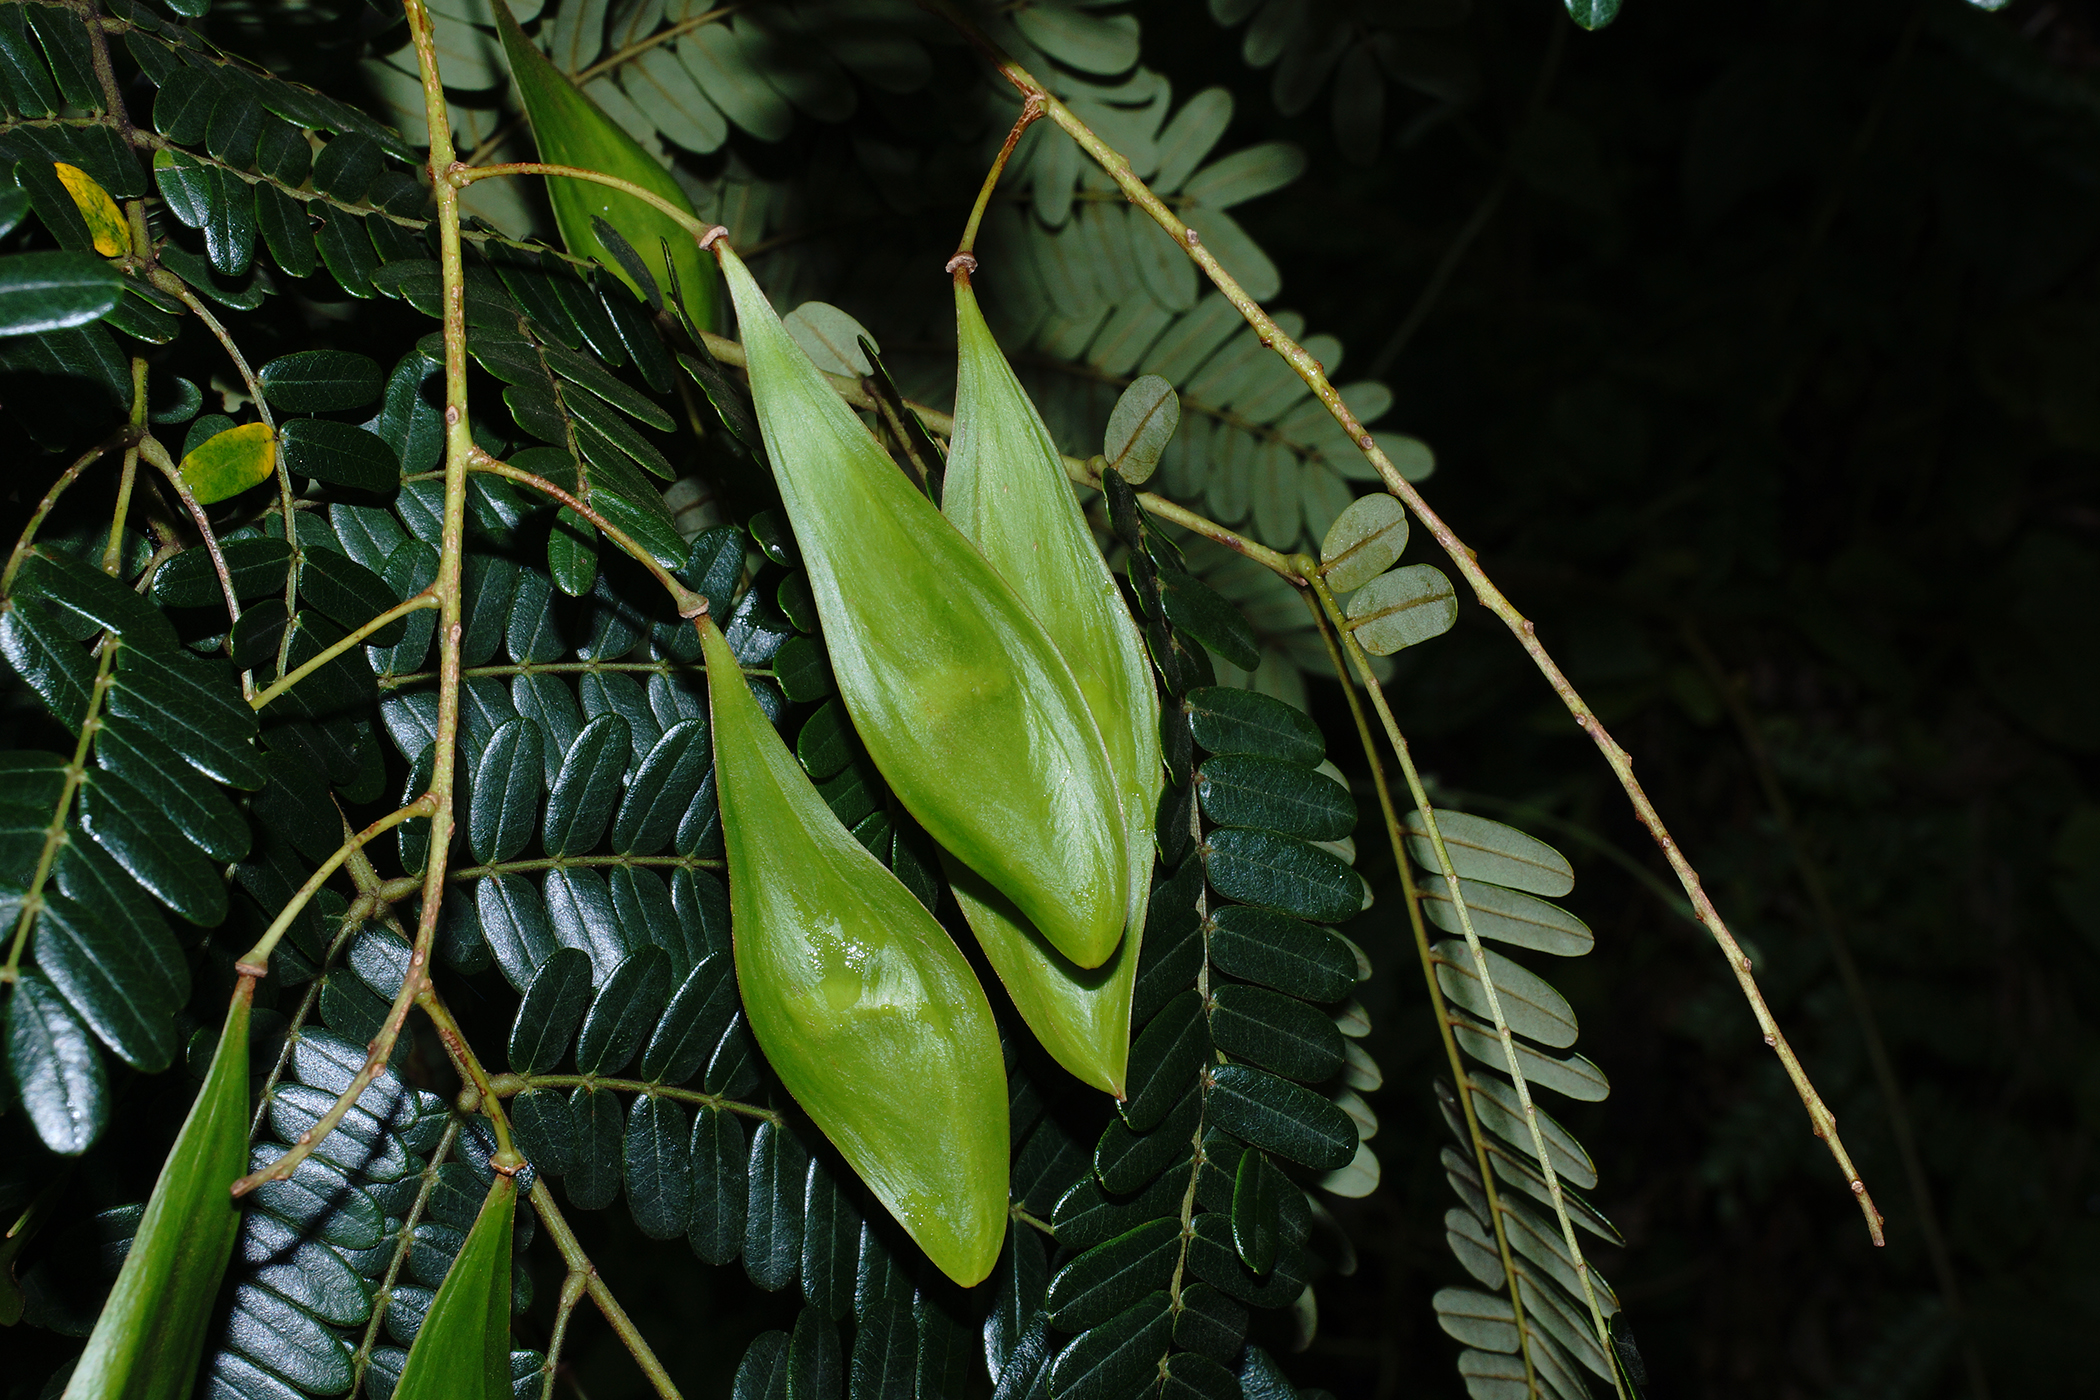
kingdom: Plantae
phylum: Tracheophyta
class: Magnoliopsida
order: Fabales
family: Fabaceae
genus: Peltophorum
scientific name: Peltophorum dasyrhachis
